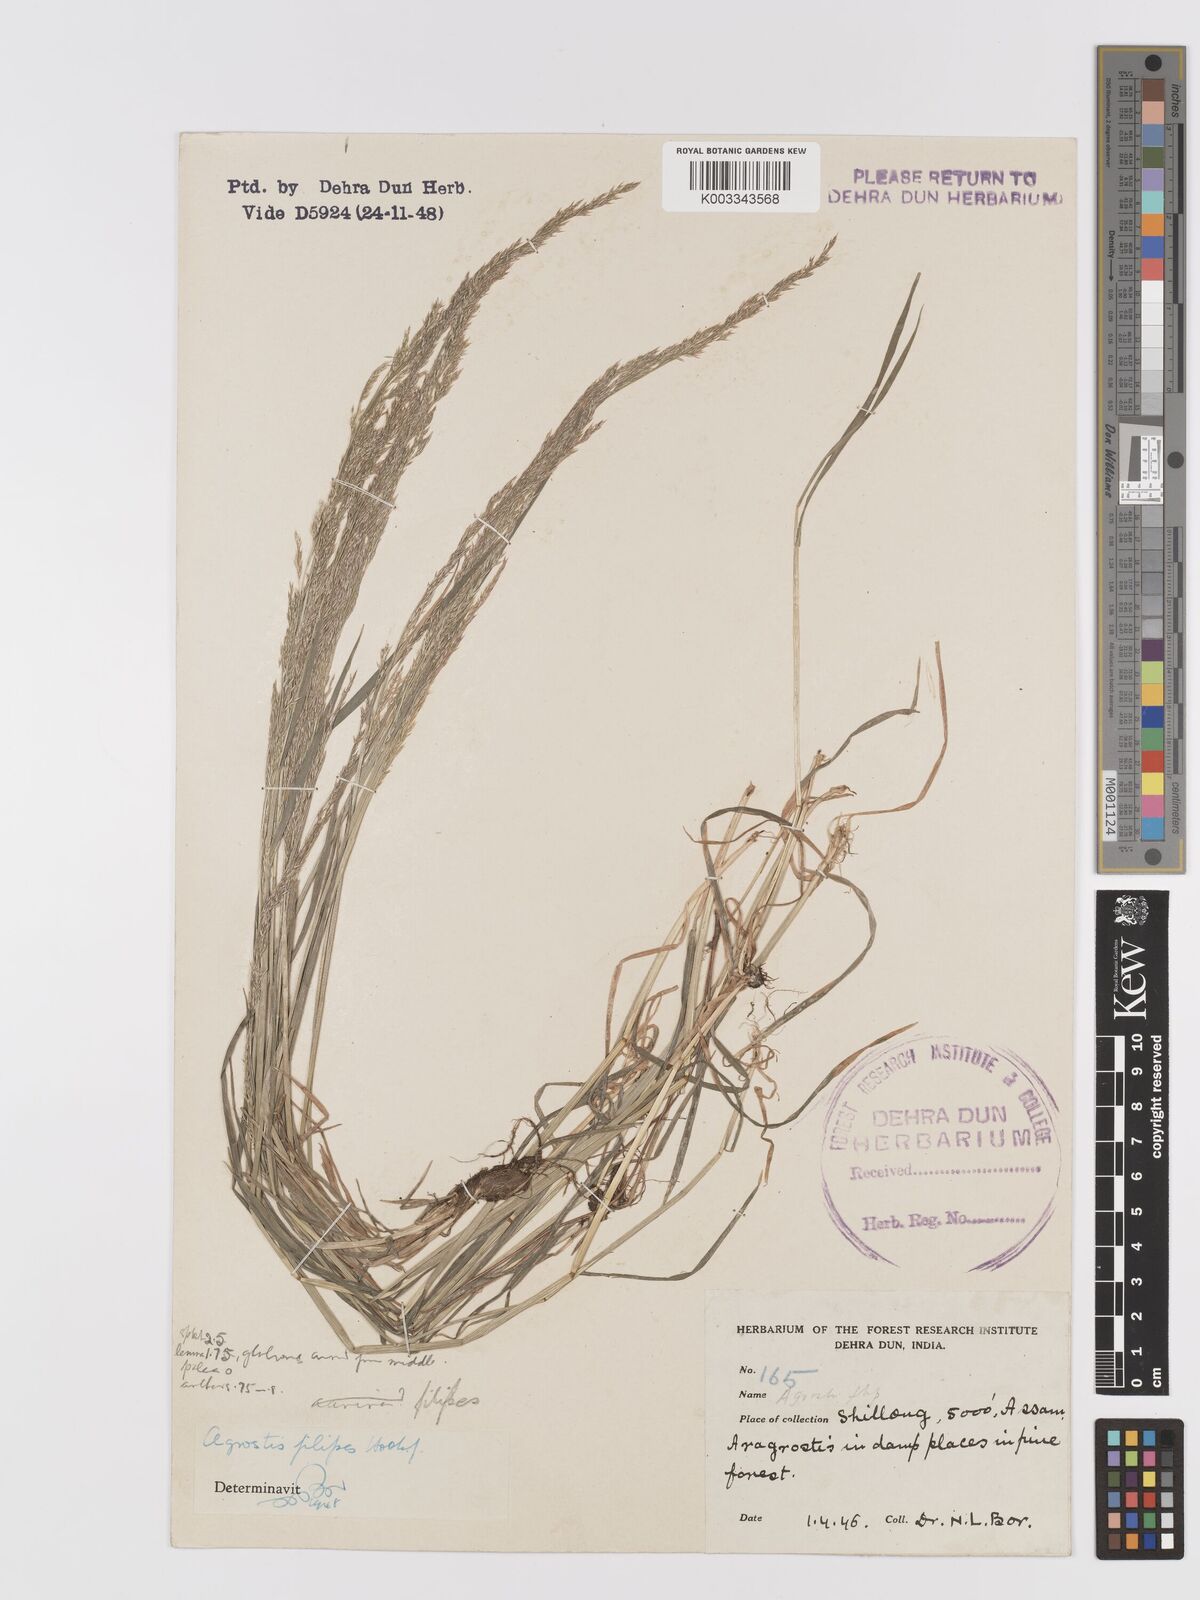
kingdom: Plantae
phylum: Tracheophyta
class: Liliopsida
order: Poales
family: Poaceae
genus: Agrostis
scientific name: Agrostis filipes
